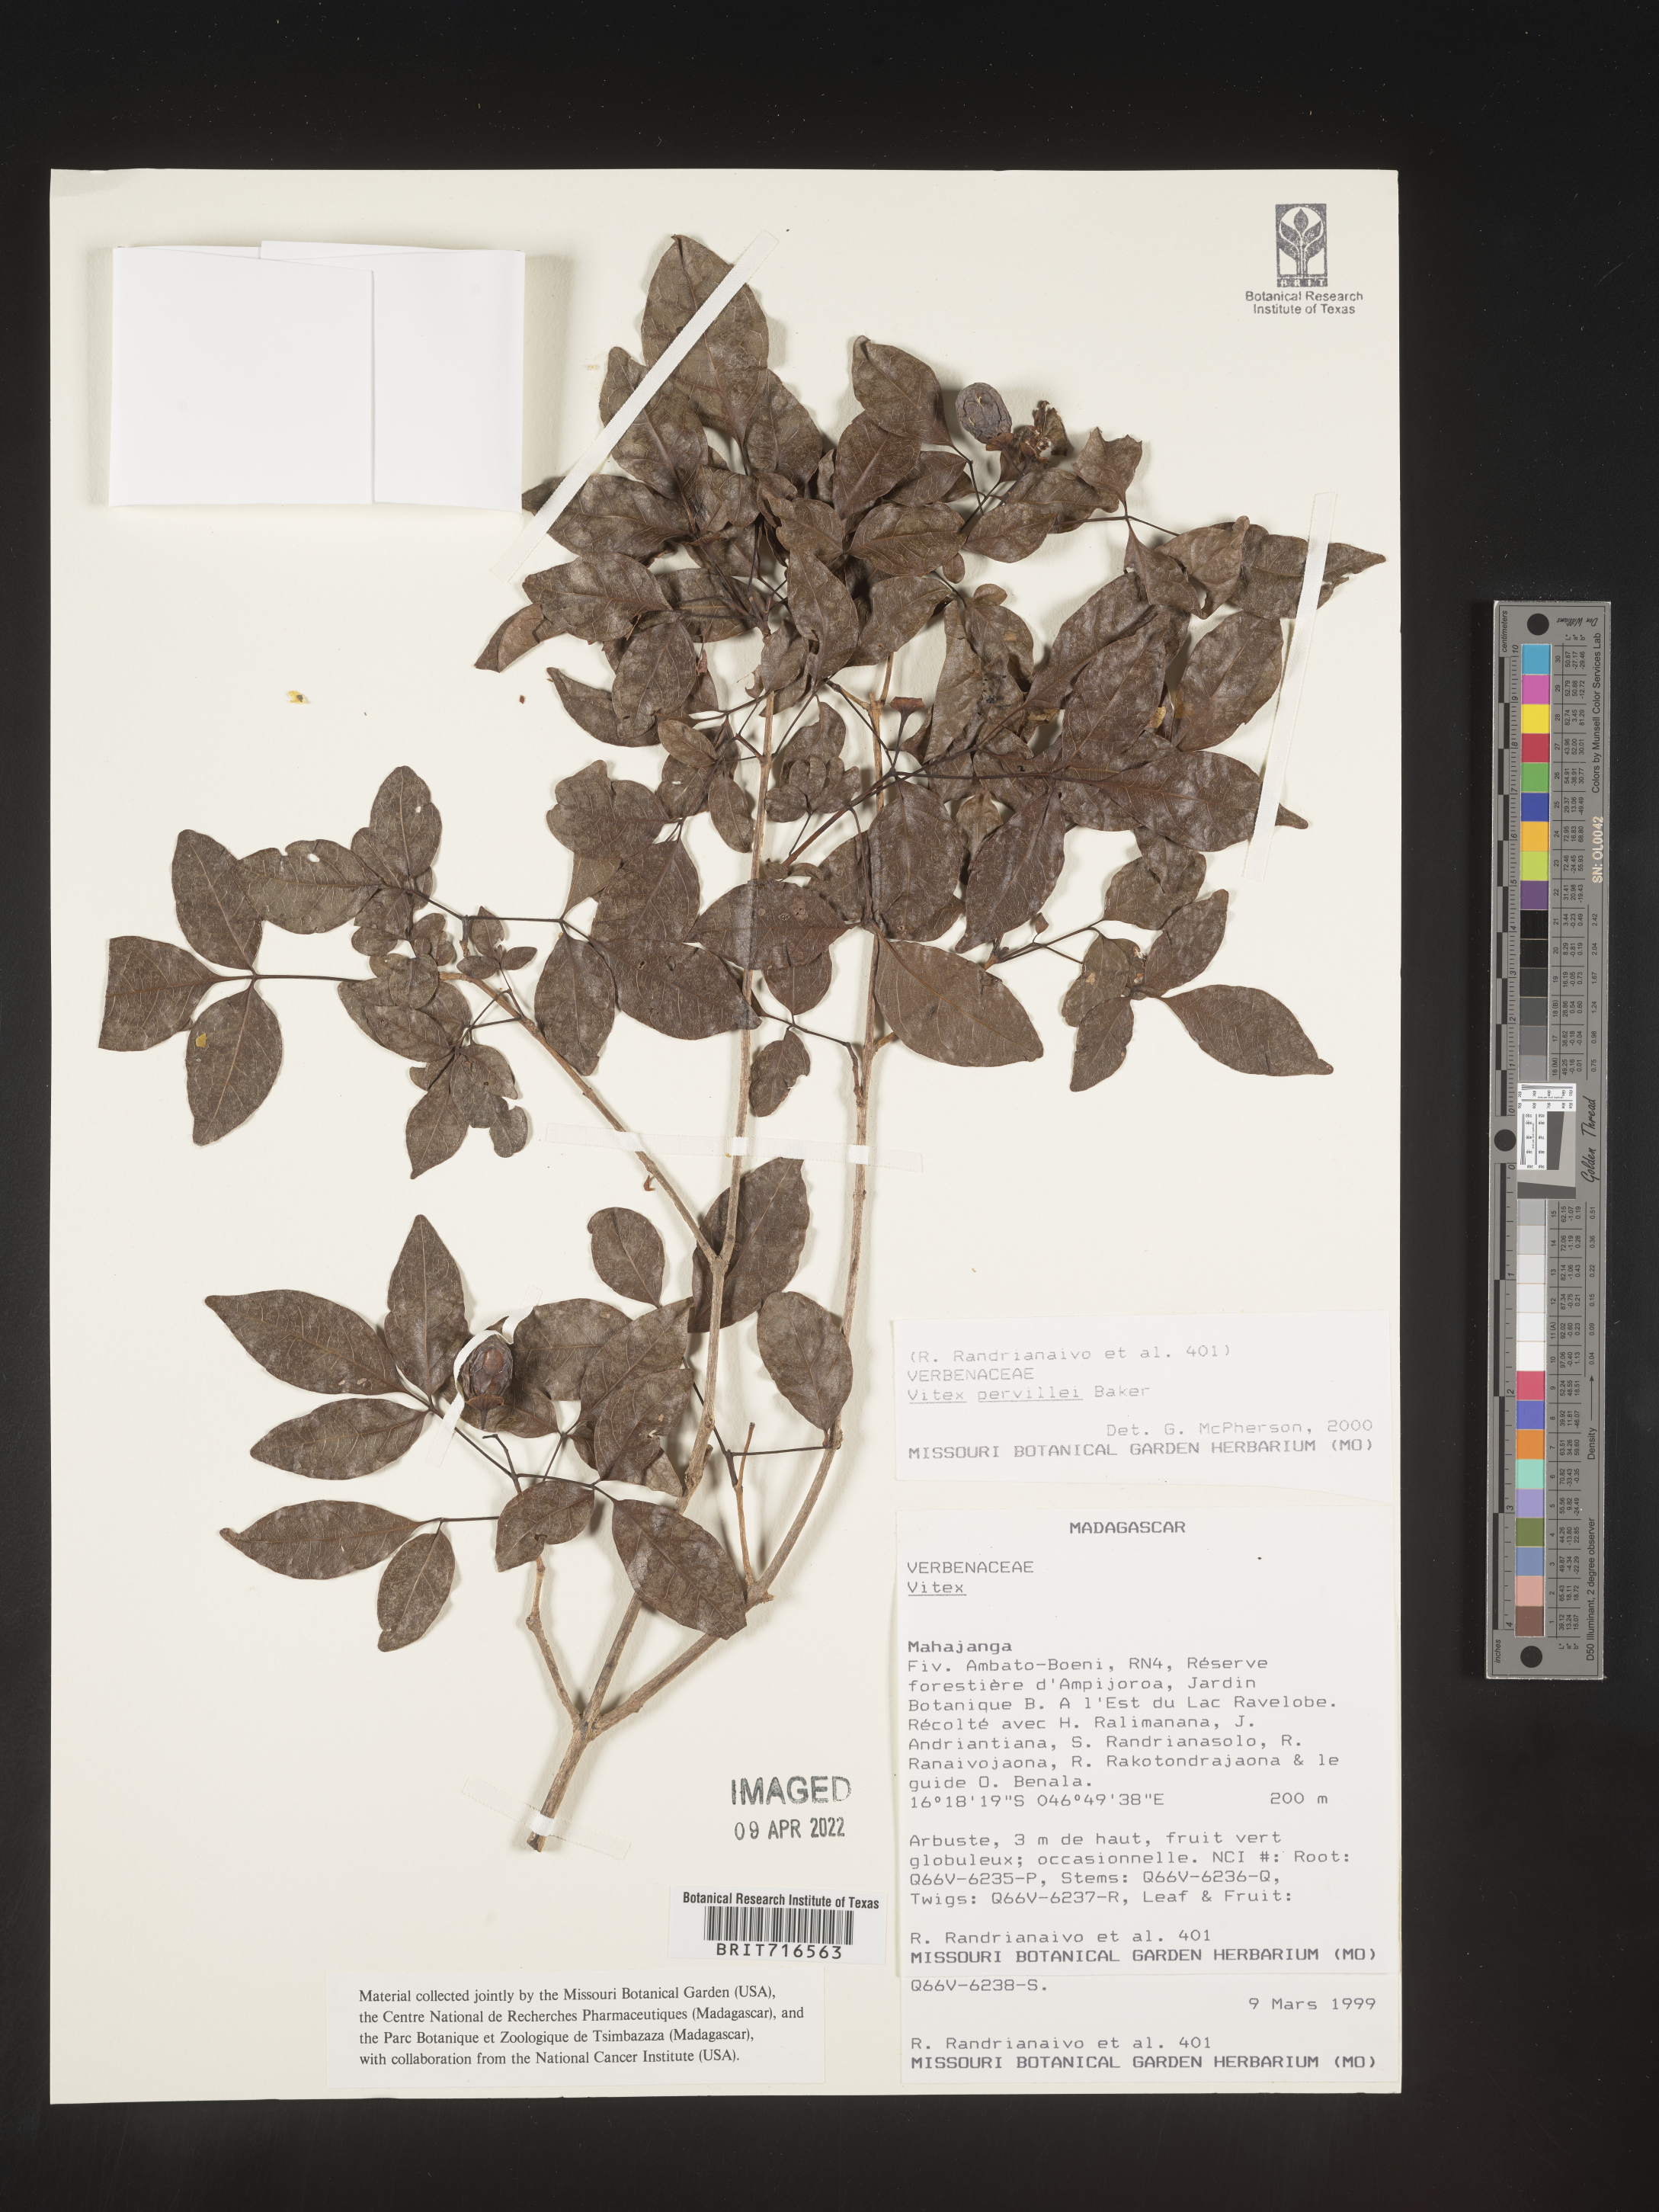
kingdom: Plantae
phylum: Tracheophyta
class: Magnoliopsida
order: Lamiales
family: Lamiaceae
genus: Vitex
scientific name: Vitex
